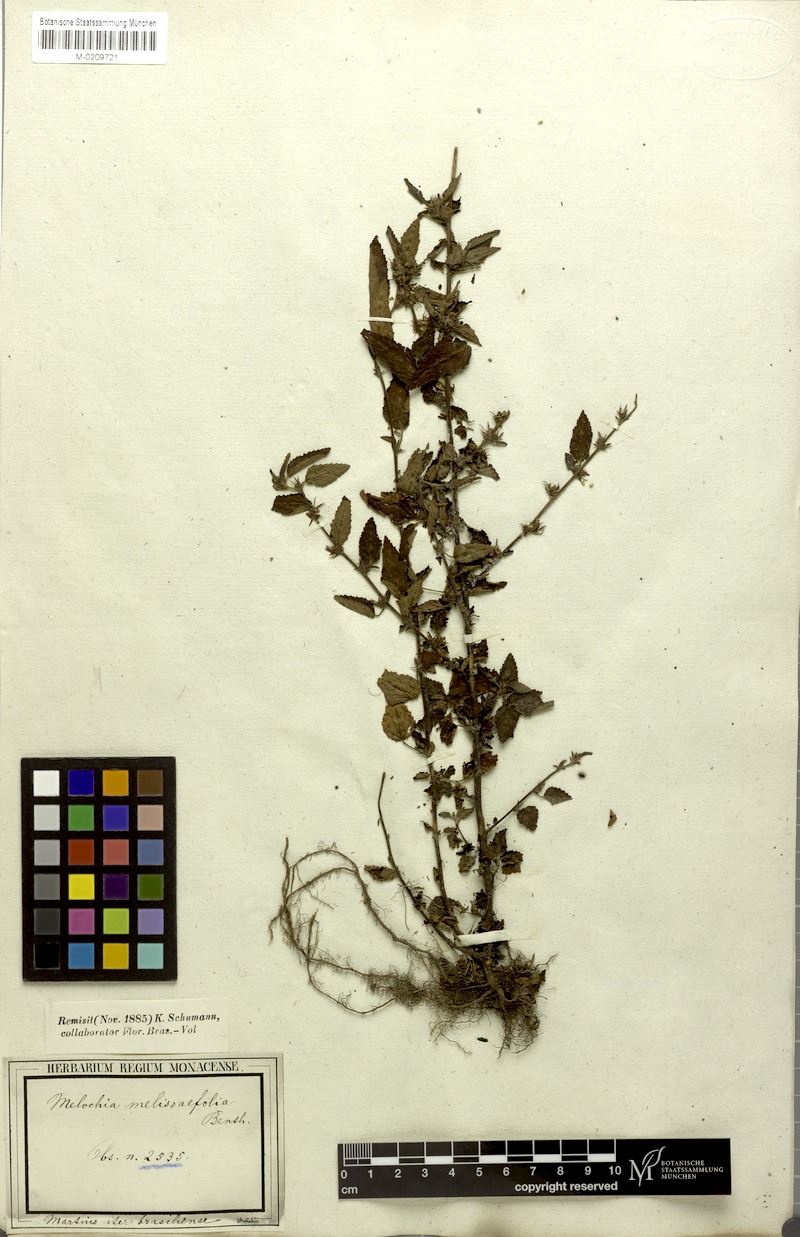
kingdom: Plantae
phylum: Tracheophyta
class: Magnoliopsida
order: Malvales
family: Malvaceae
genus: Melochia
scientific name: Melochia melissifolia
